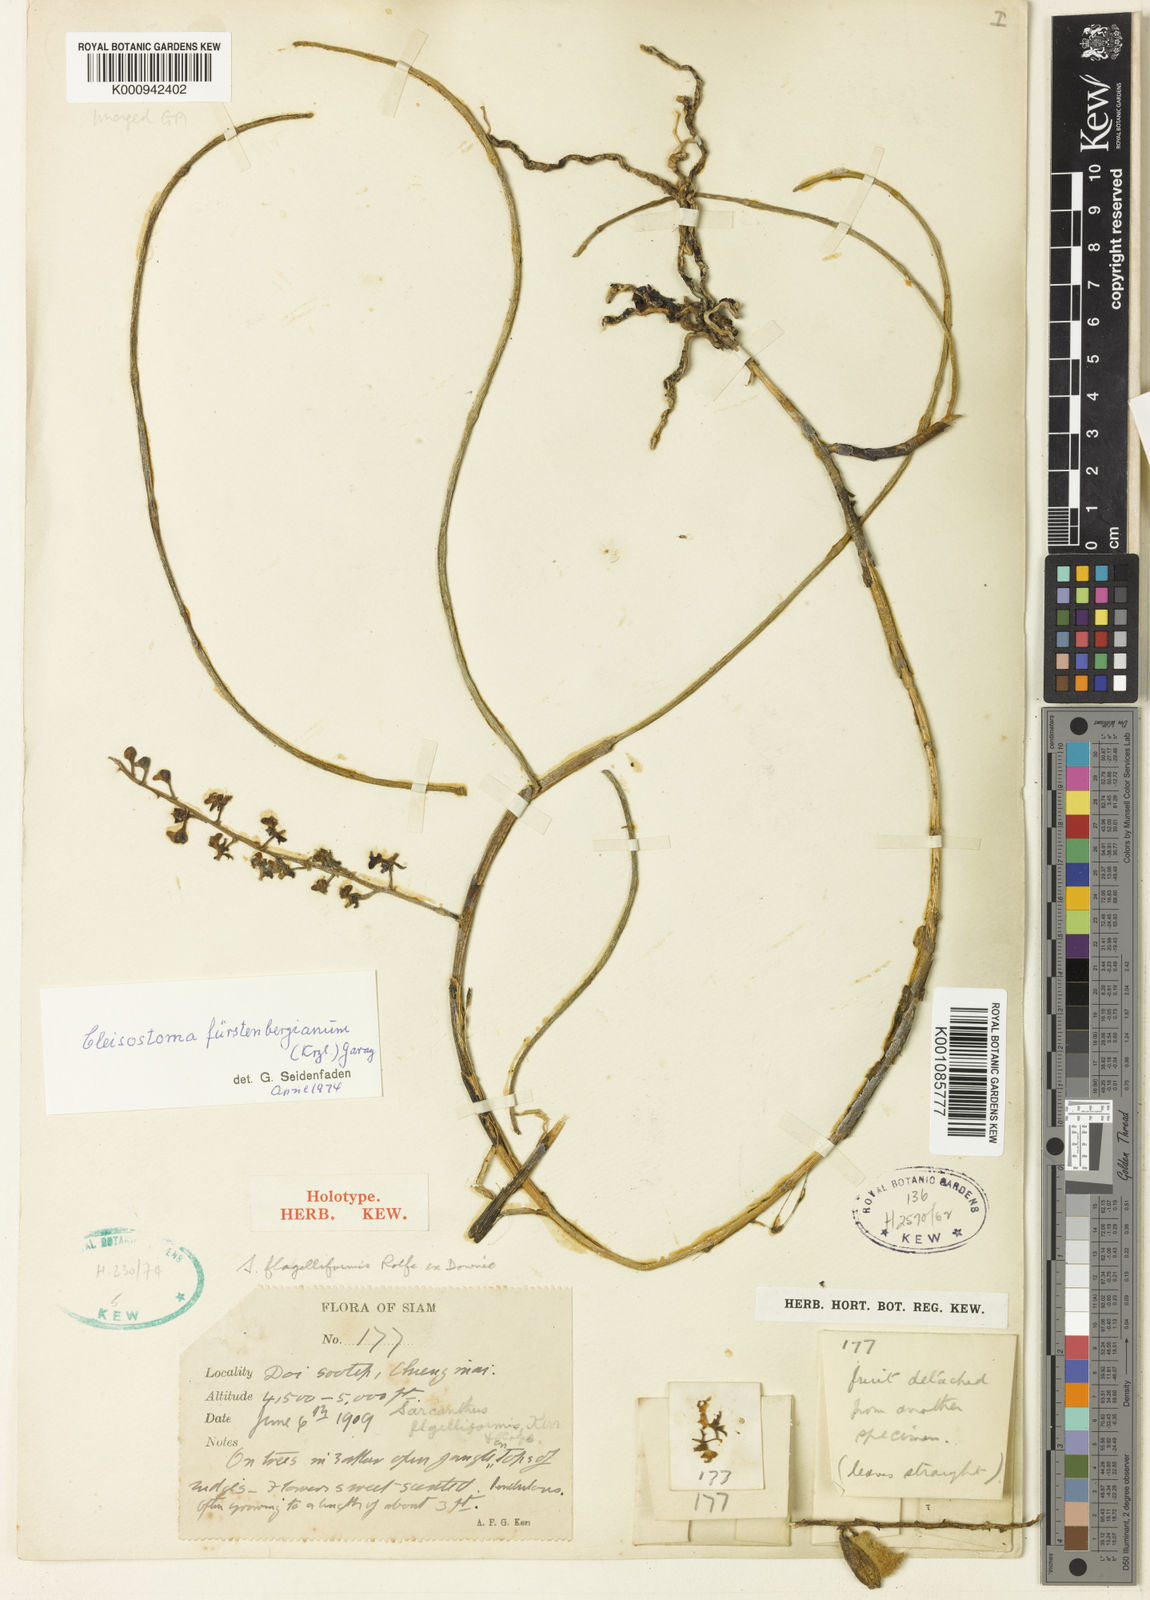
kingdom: Plantae
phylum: Tracheophyta
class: Liliopsida
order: Asparagales
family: Orchidaceae
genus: Cleisostoma
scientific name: Cleisostoma fuerstenbergianum
